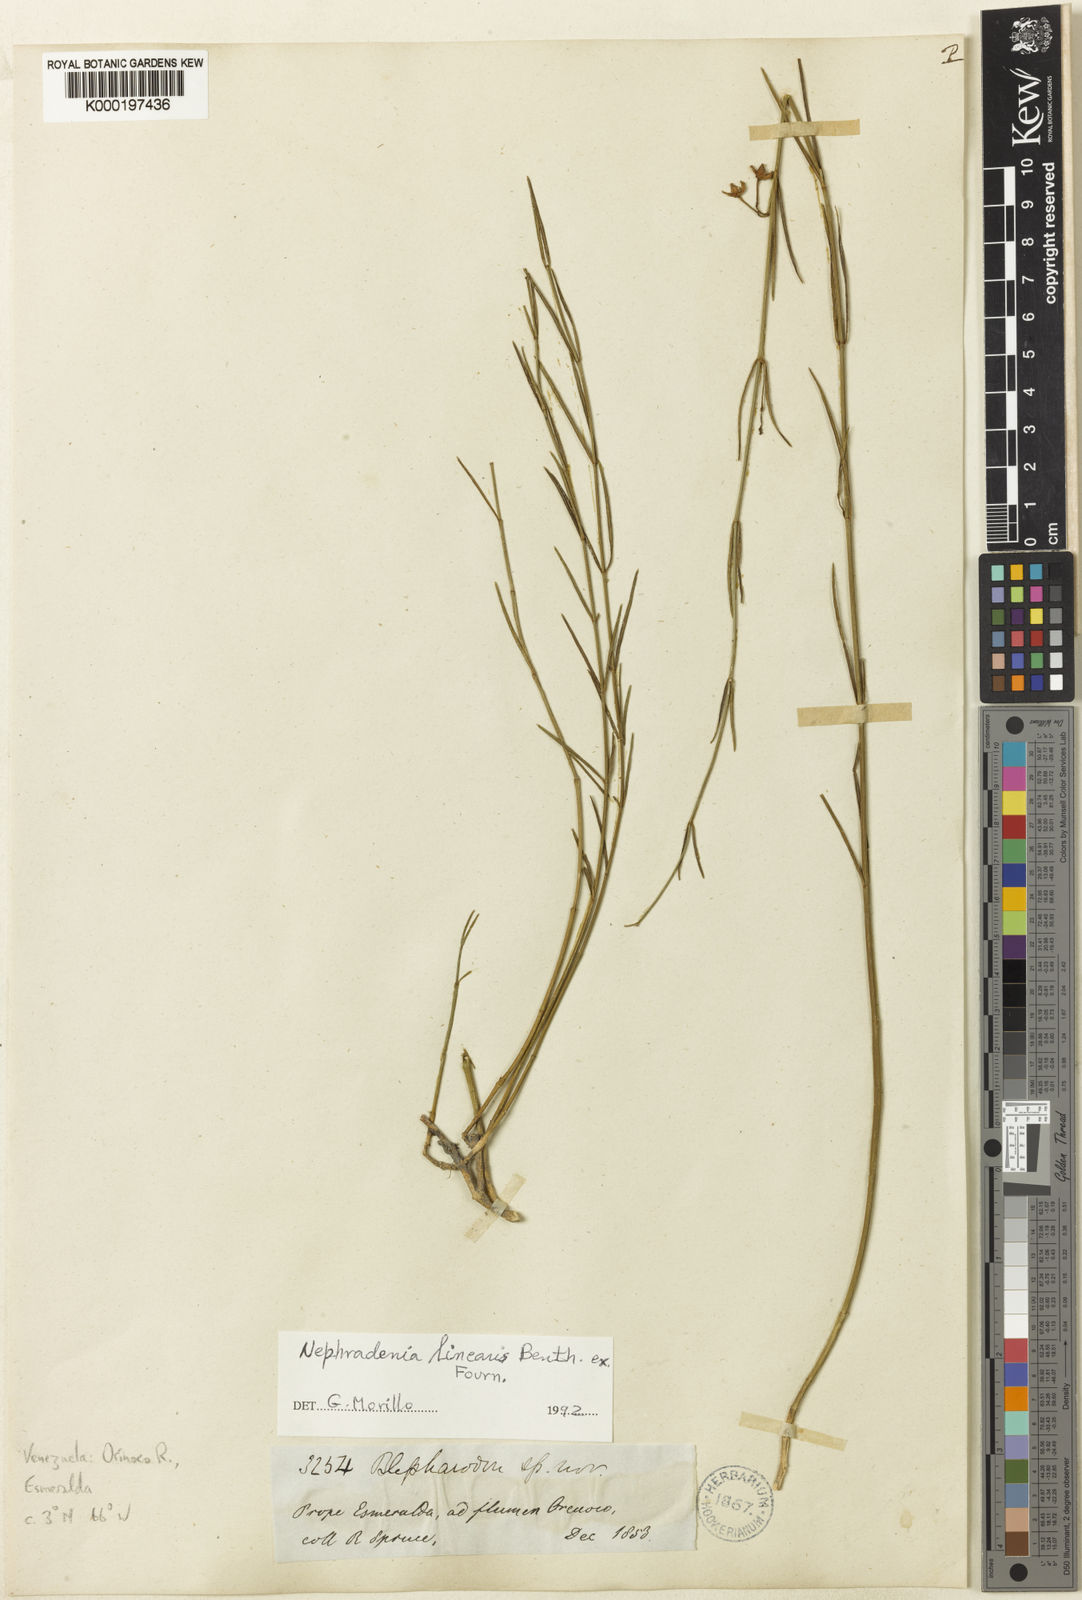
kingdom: Plantae
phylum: Tracheophyta
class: Magnoliopsida
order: Gentianales
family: Apocynaceae
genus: Blepharodon
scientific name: Blepharodon lineare
